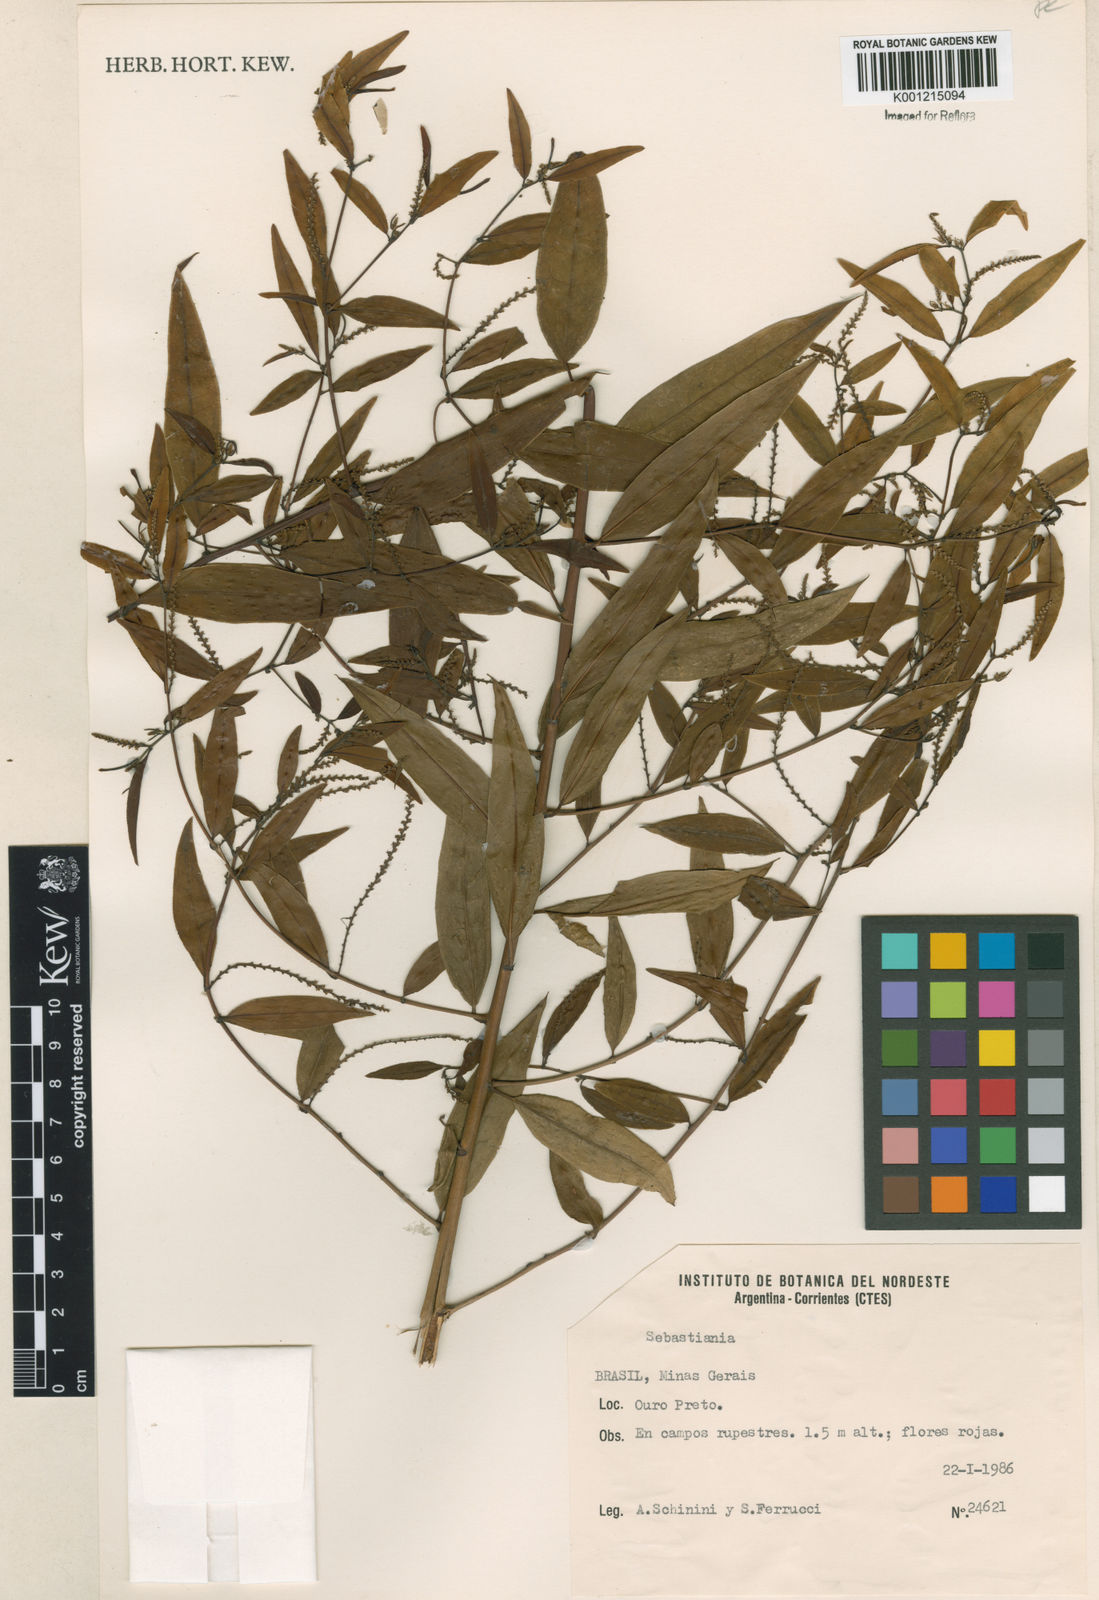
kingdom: Plantae
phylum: Tracheophyta
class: Magnoliopsida
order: Malpighiales
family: Euphorbiaceae
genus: Sebastiania
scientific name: Sebastiania
